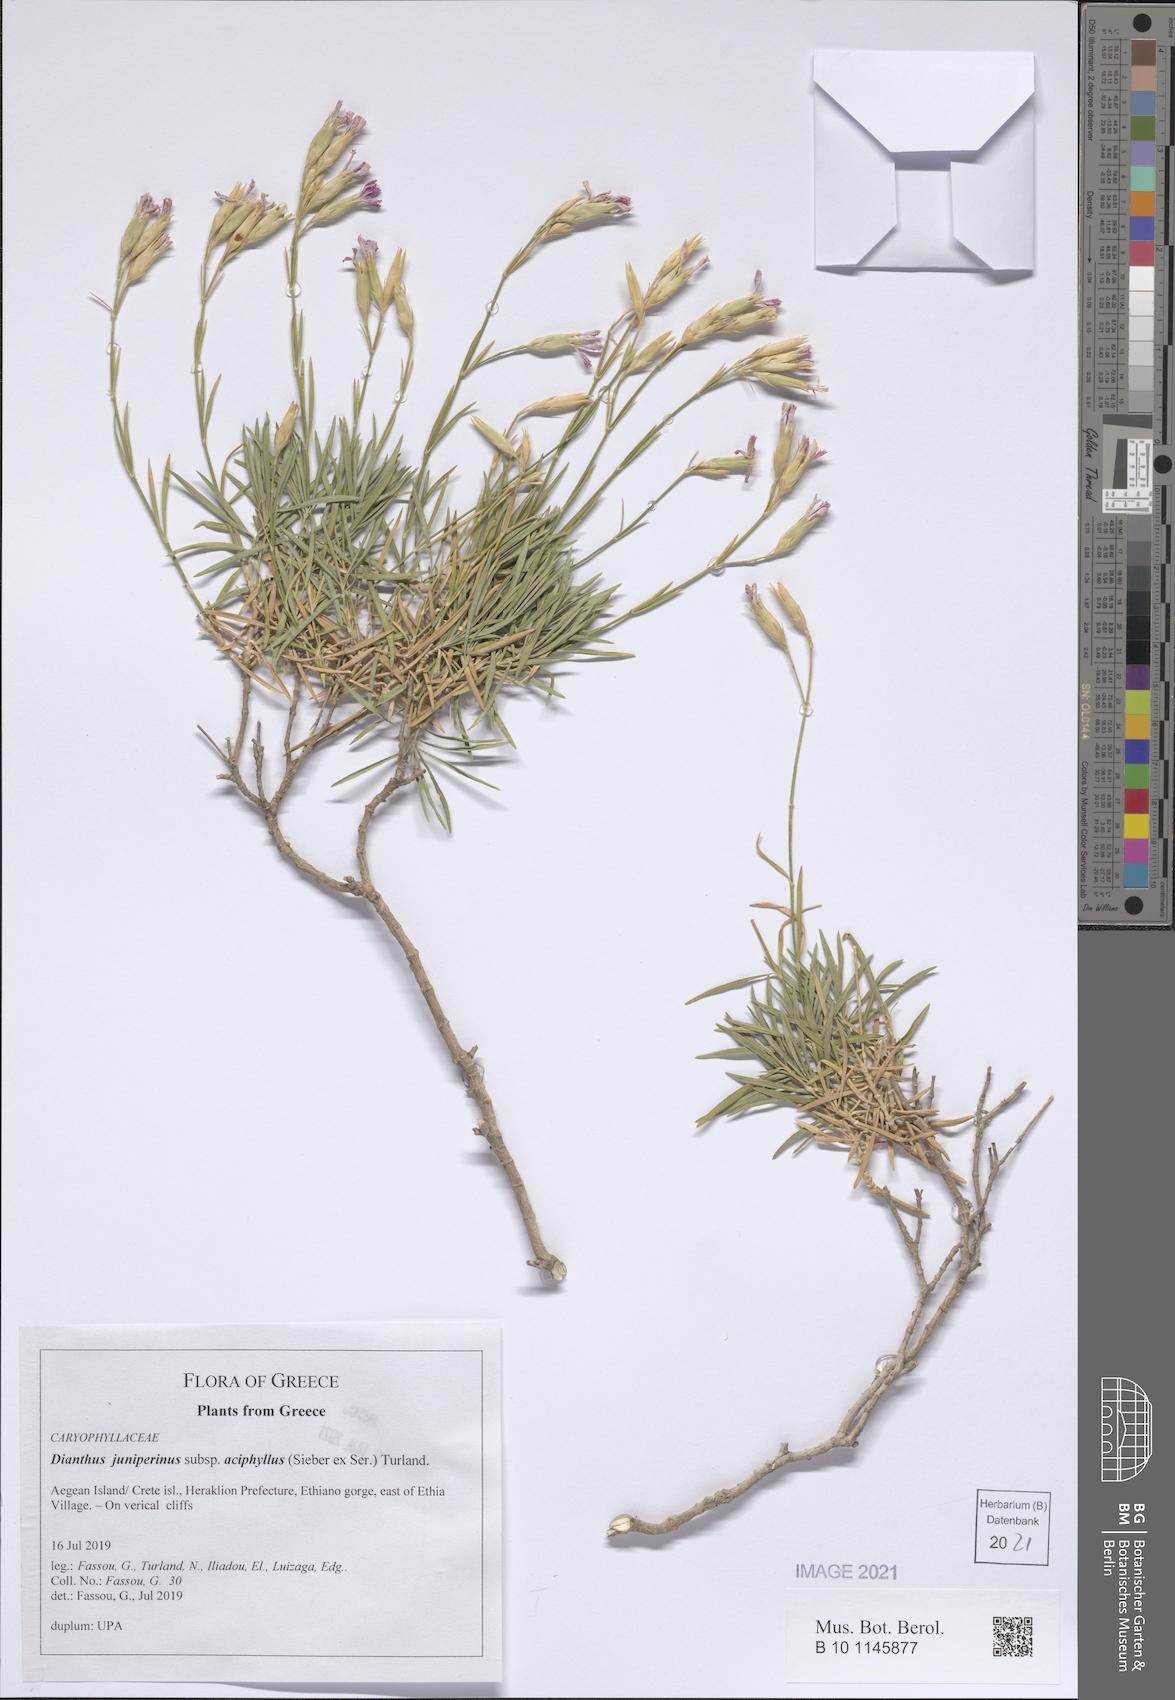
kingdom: Plantae
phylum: Tracheophyta
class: Magnoliopsida
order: Caryophyllales
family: Caryophyllaceae
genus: Dianthus
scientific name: Dianthus juniperinus
